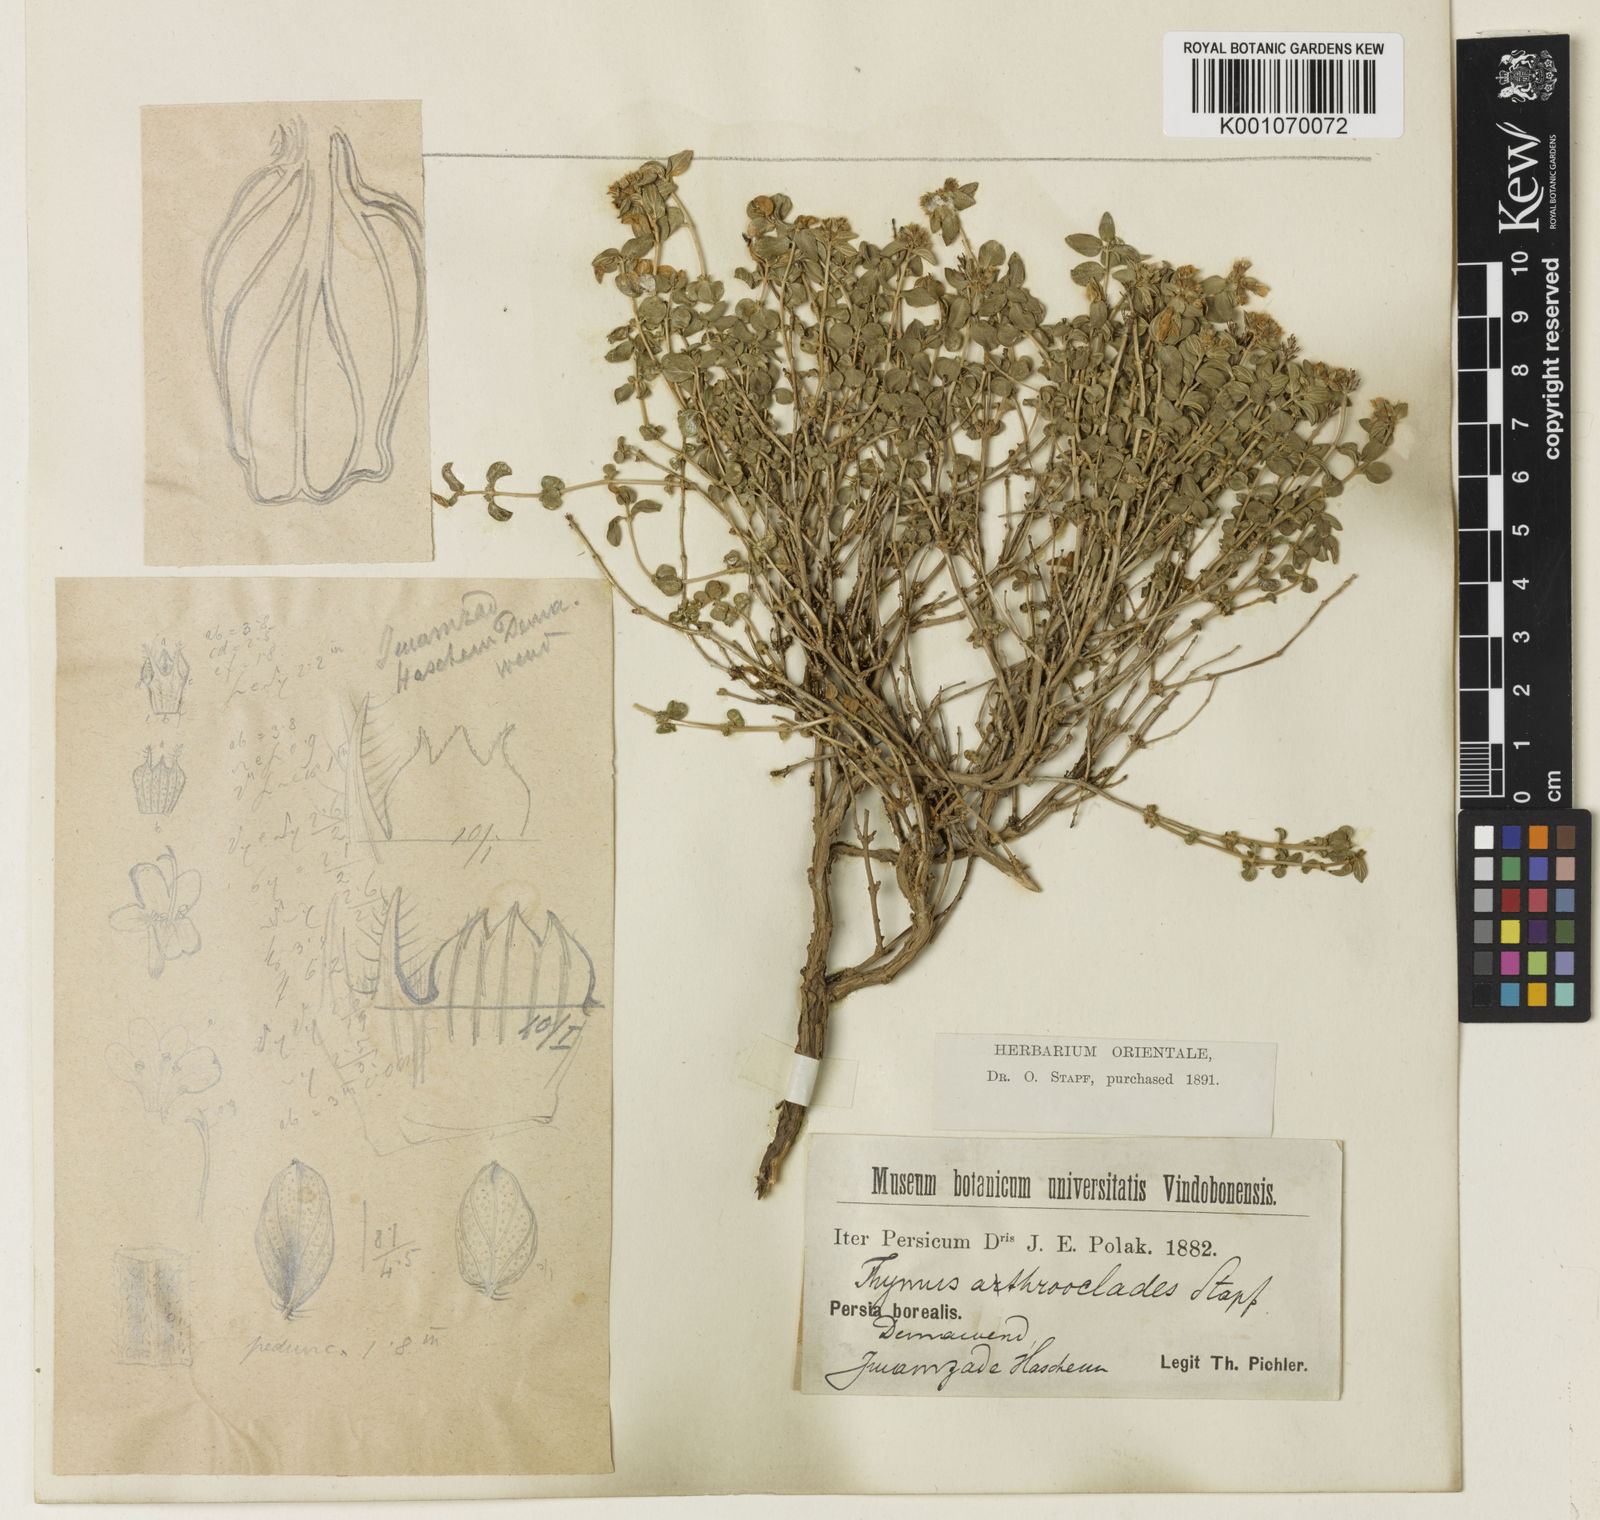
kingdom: Plantae
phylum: Tracheophyta
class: Magnoliopsida
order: Lamiales
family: Lamiaceae
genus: Thymus
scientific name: Thymus
